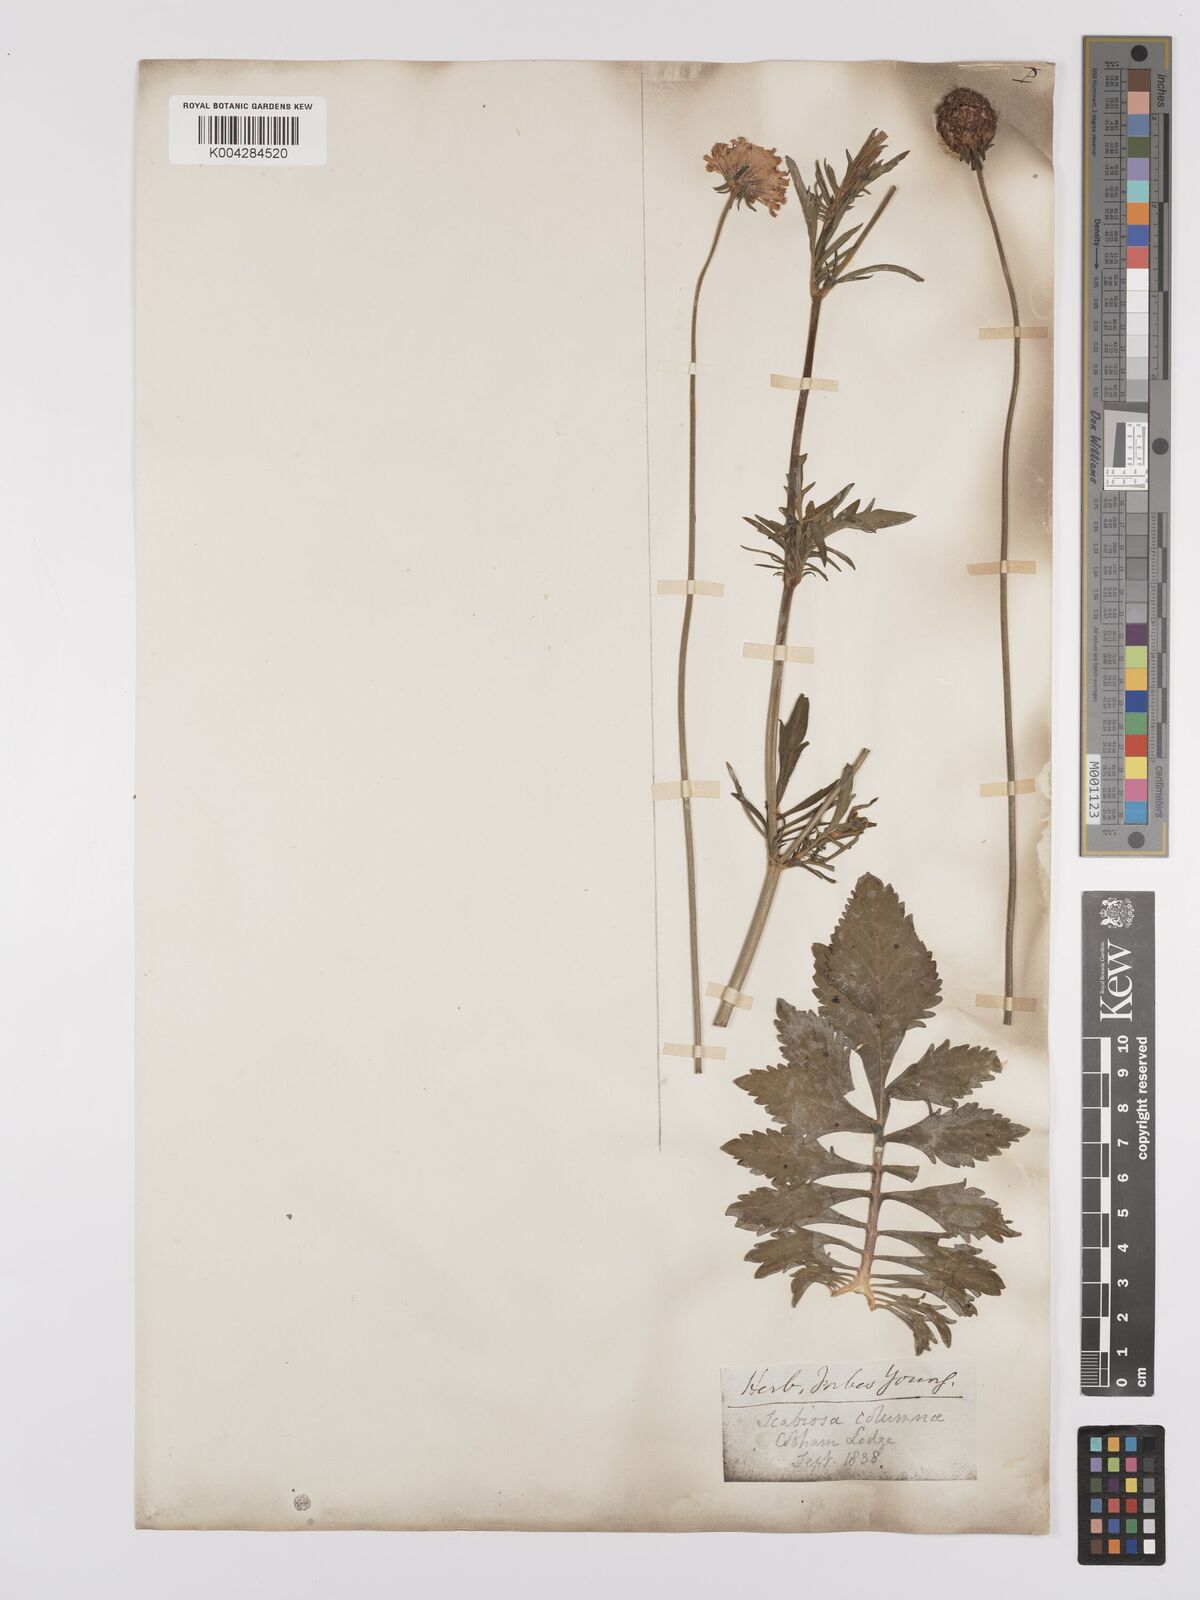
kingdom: Plantae
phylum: Tracheophyta
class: Magnoliopsida
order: Dipsacales
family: Caprifoliaceae
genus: Scabiosa
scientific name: Scabiosa triandra
